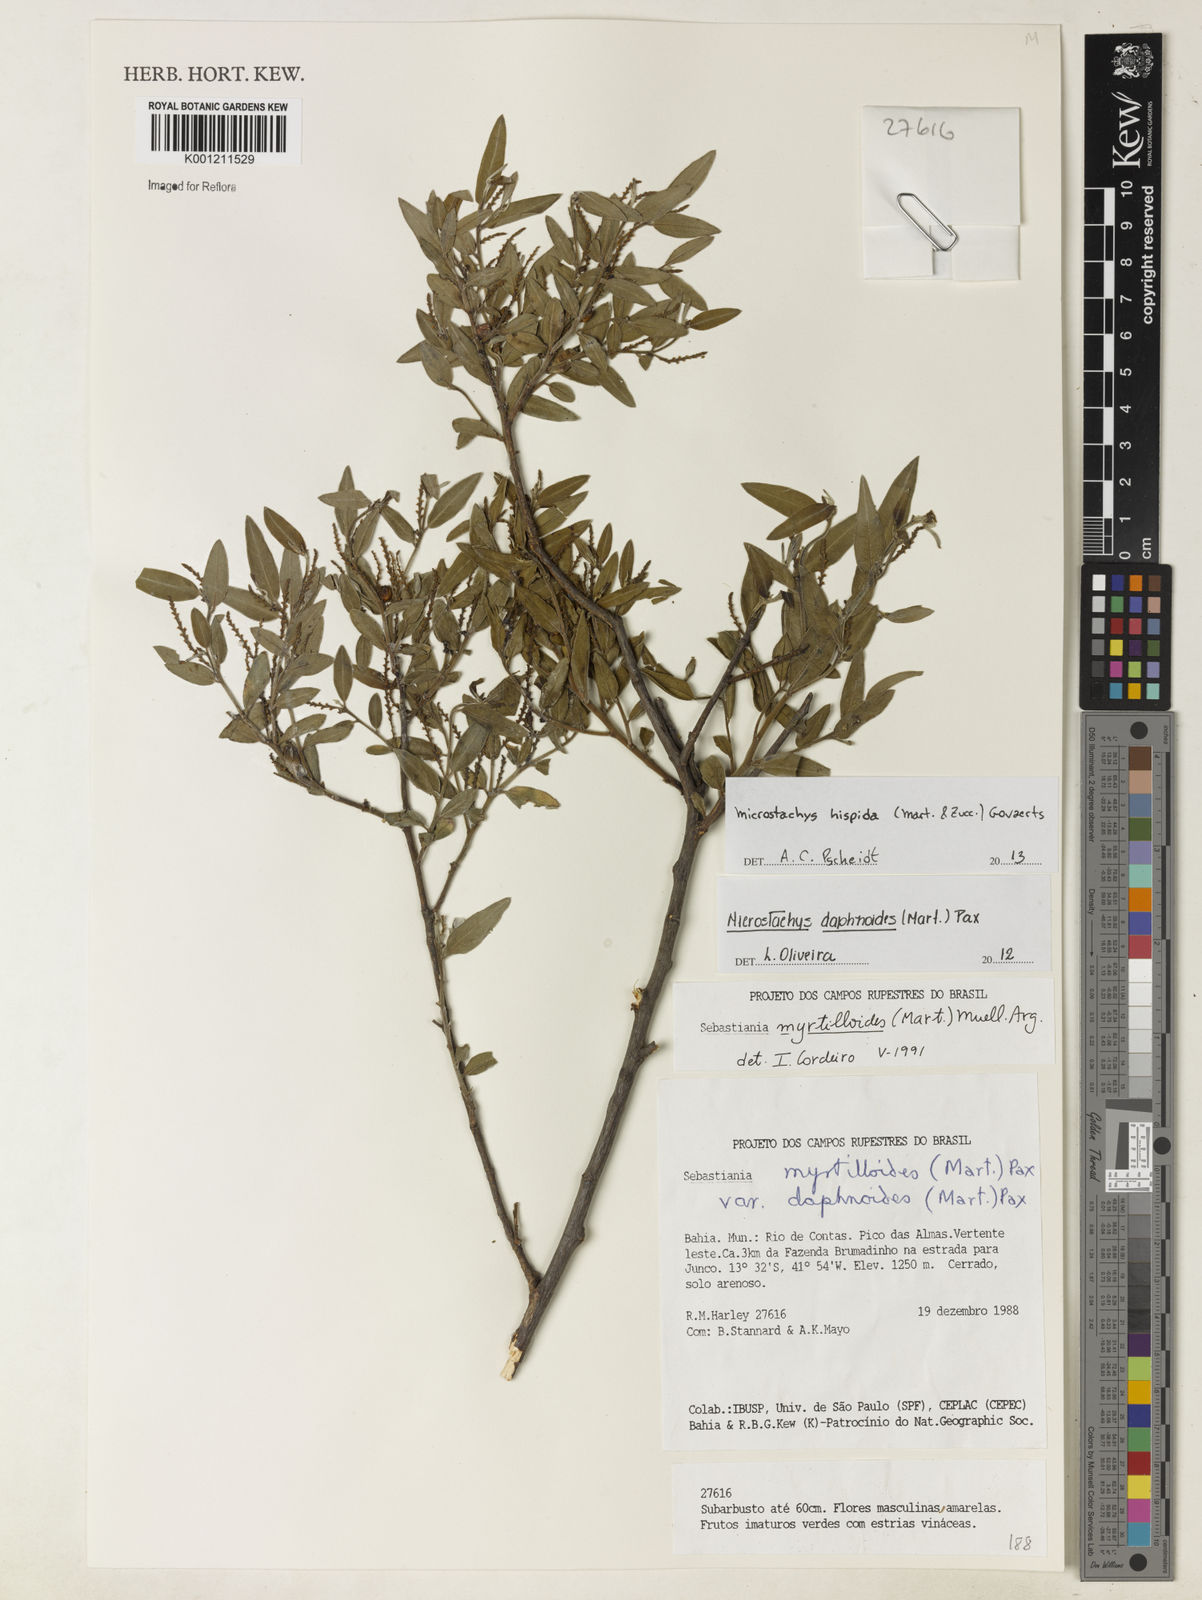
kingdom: Plantae
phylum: Tracheophyta
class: Magnoliopsida
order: Malpighiales
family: Euphorbiaceae
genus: Microstachys
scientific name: Microstachys hispida
